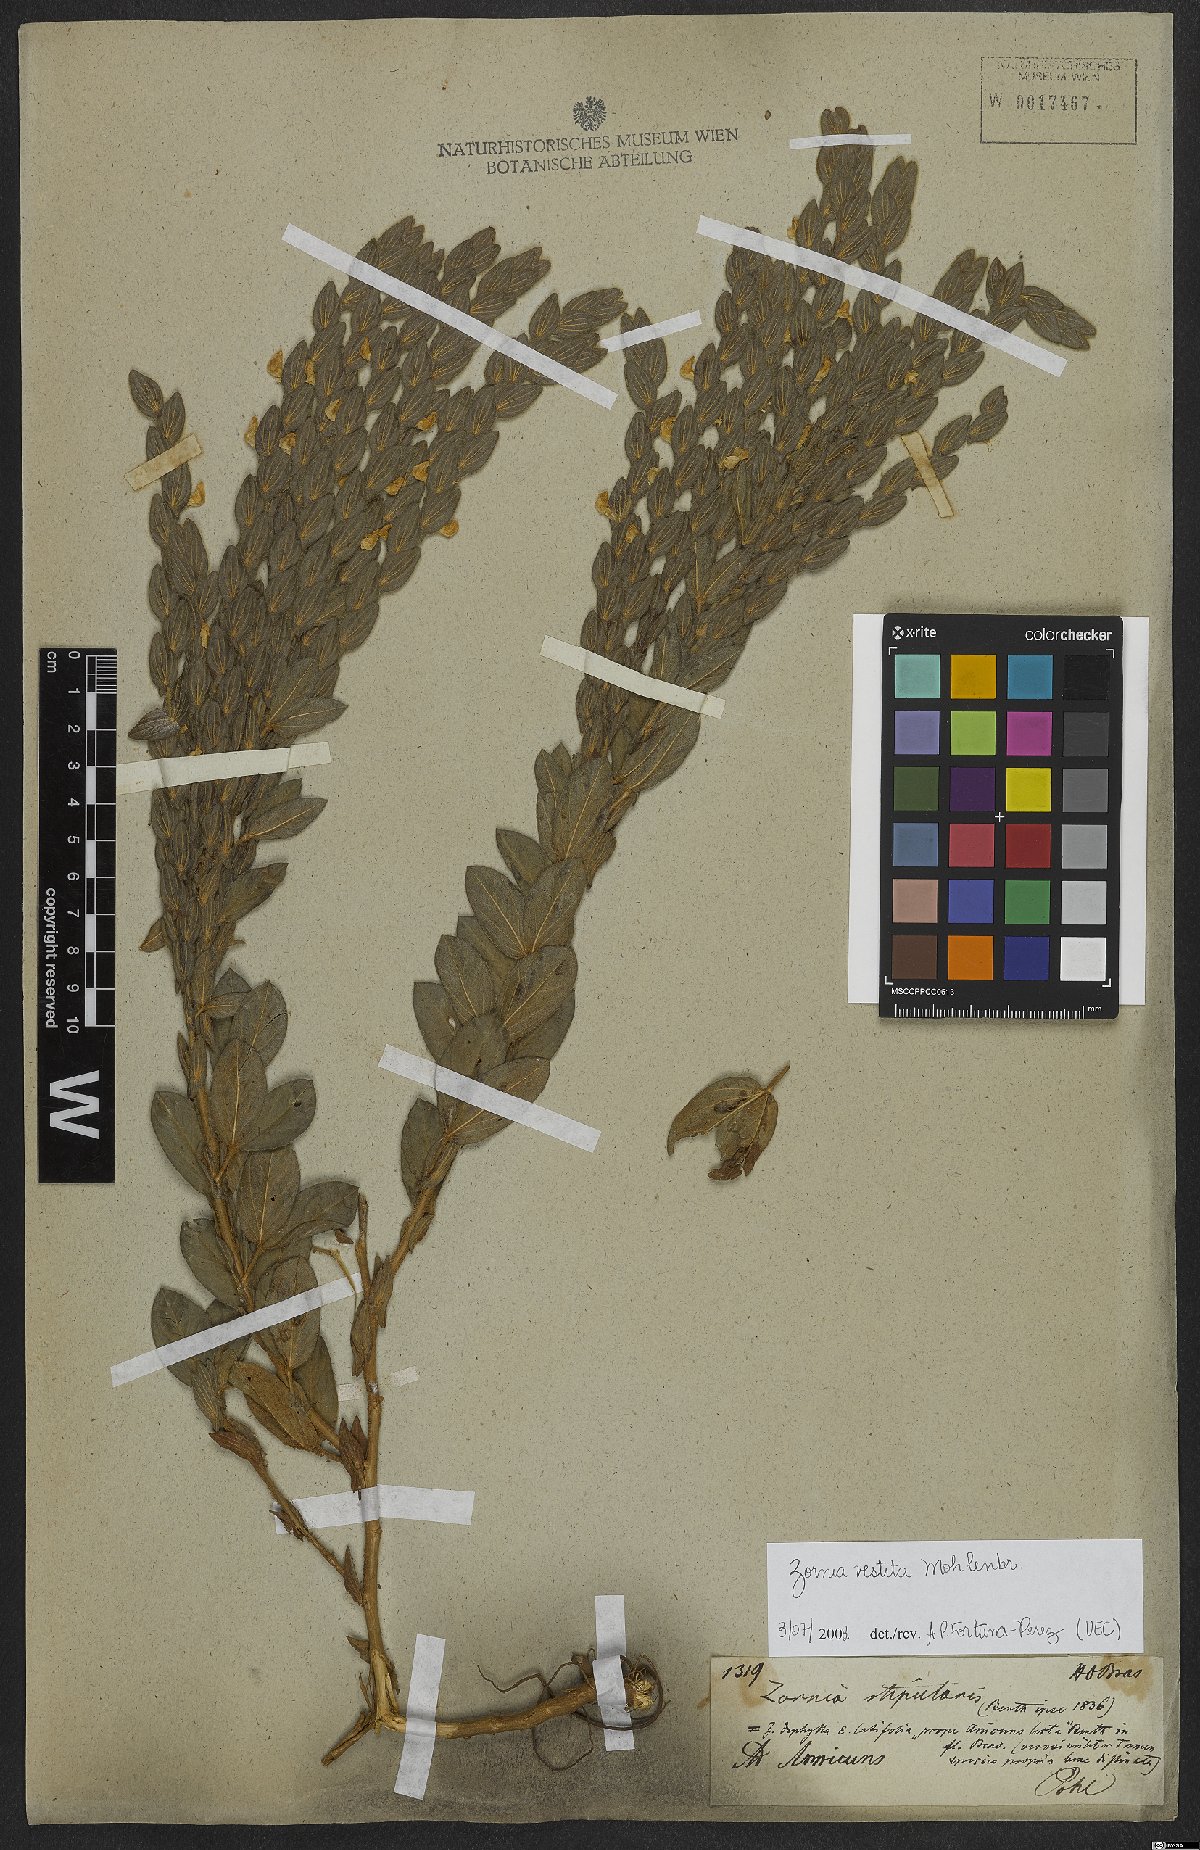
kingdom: Plantae
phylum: Tracheophyta
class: Magnoliopsida
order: Fabales
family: Fabaceae
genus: Zornia
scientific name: Zornia villosa
